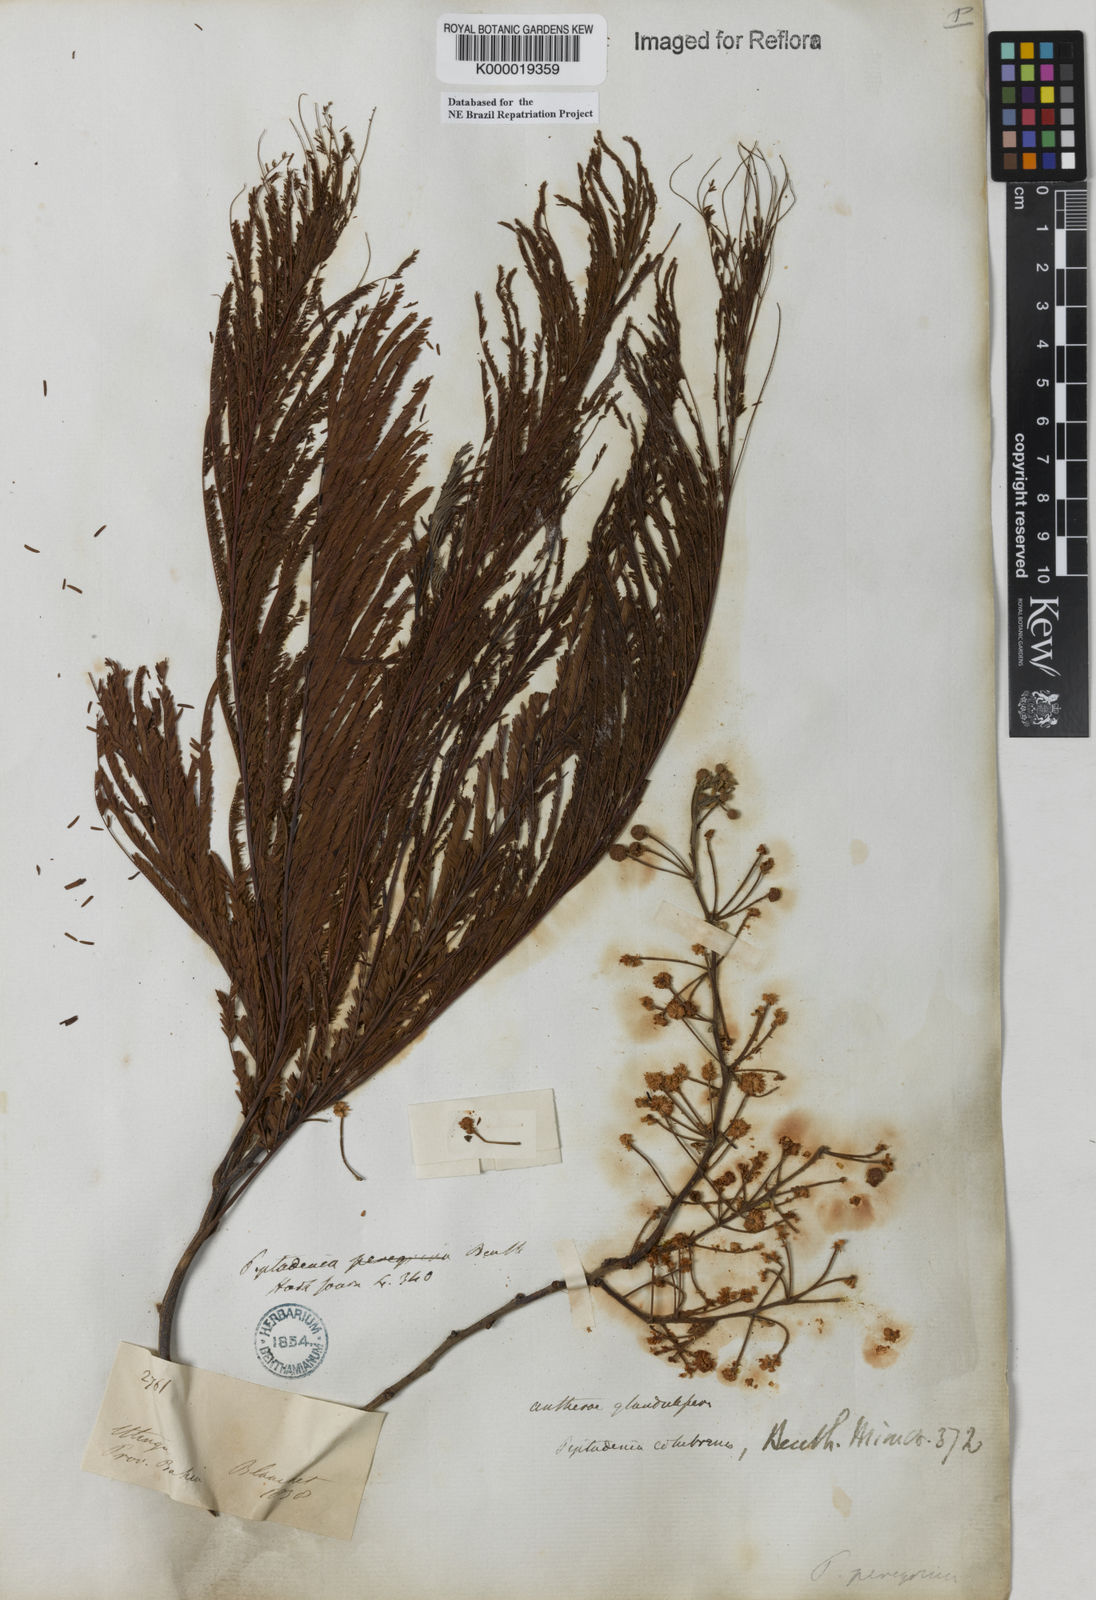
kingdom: Plantae
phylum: Tracheophyta
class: Magnoliopsida
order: Fabales
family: Fabaceae
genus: Anadenanthera
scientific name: Anadenanthera colubrina
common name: Curupay
